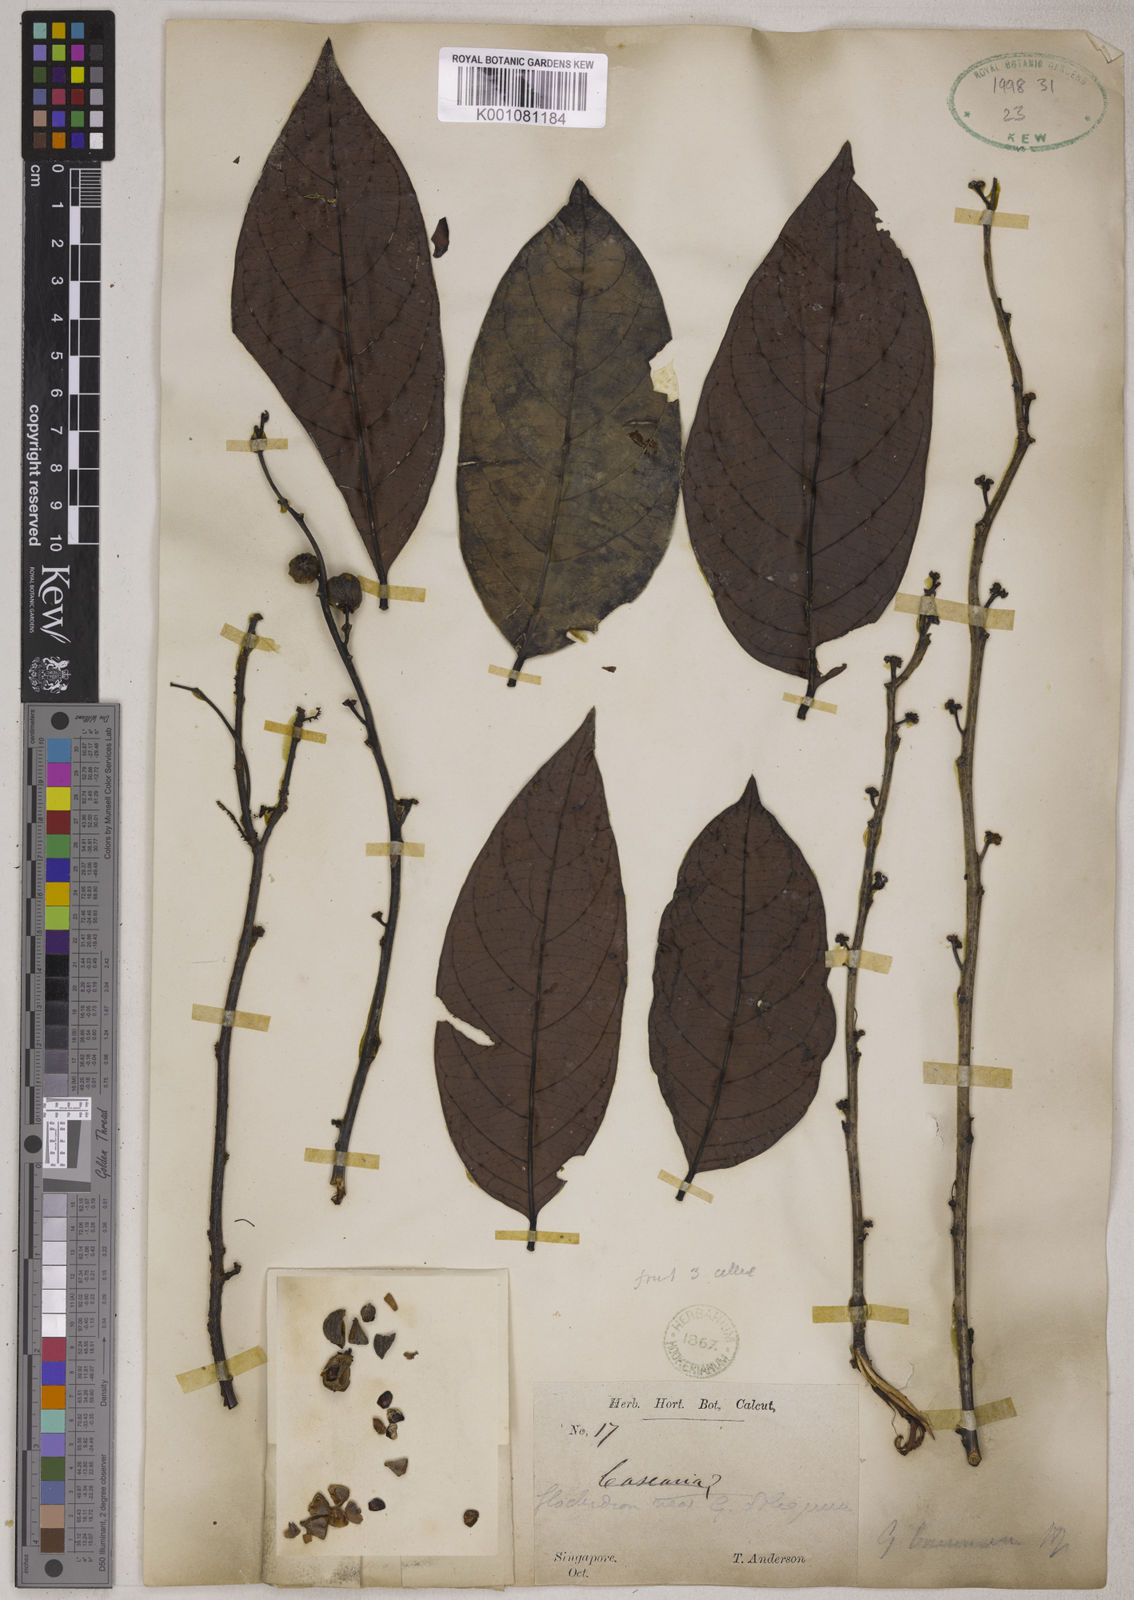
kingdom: Plantae
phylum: Tracheophyta
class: Magnoliopsida
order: Malpighiales
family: Phyllanthaceae
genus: Glochidion
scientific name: Glochidion zeylanicum
